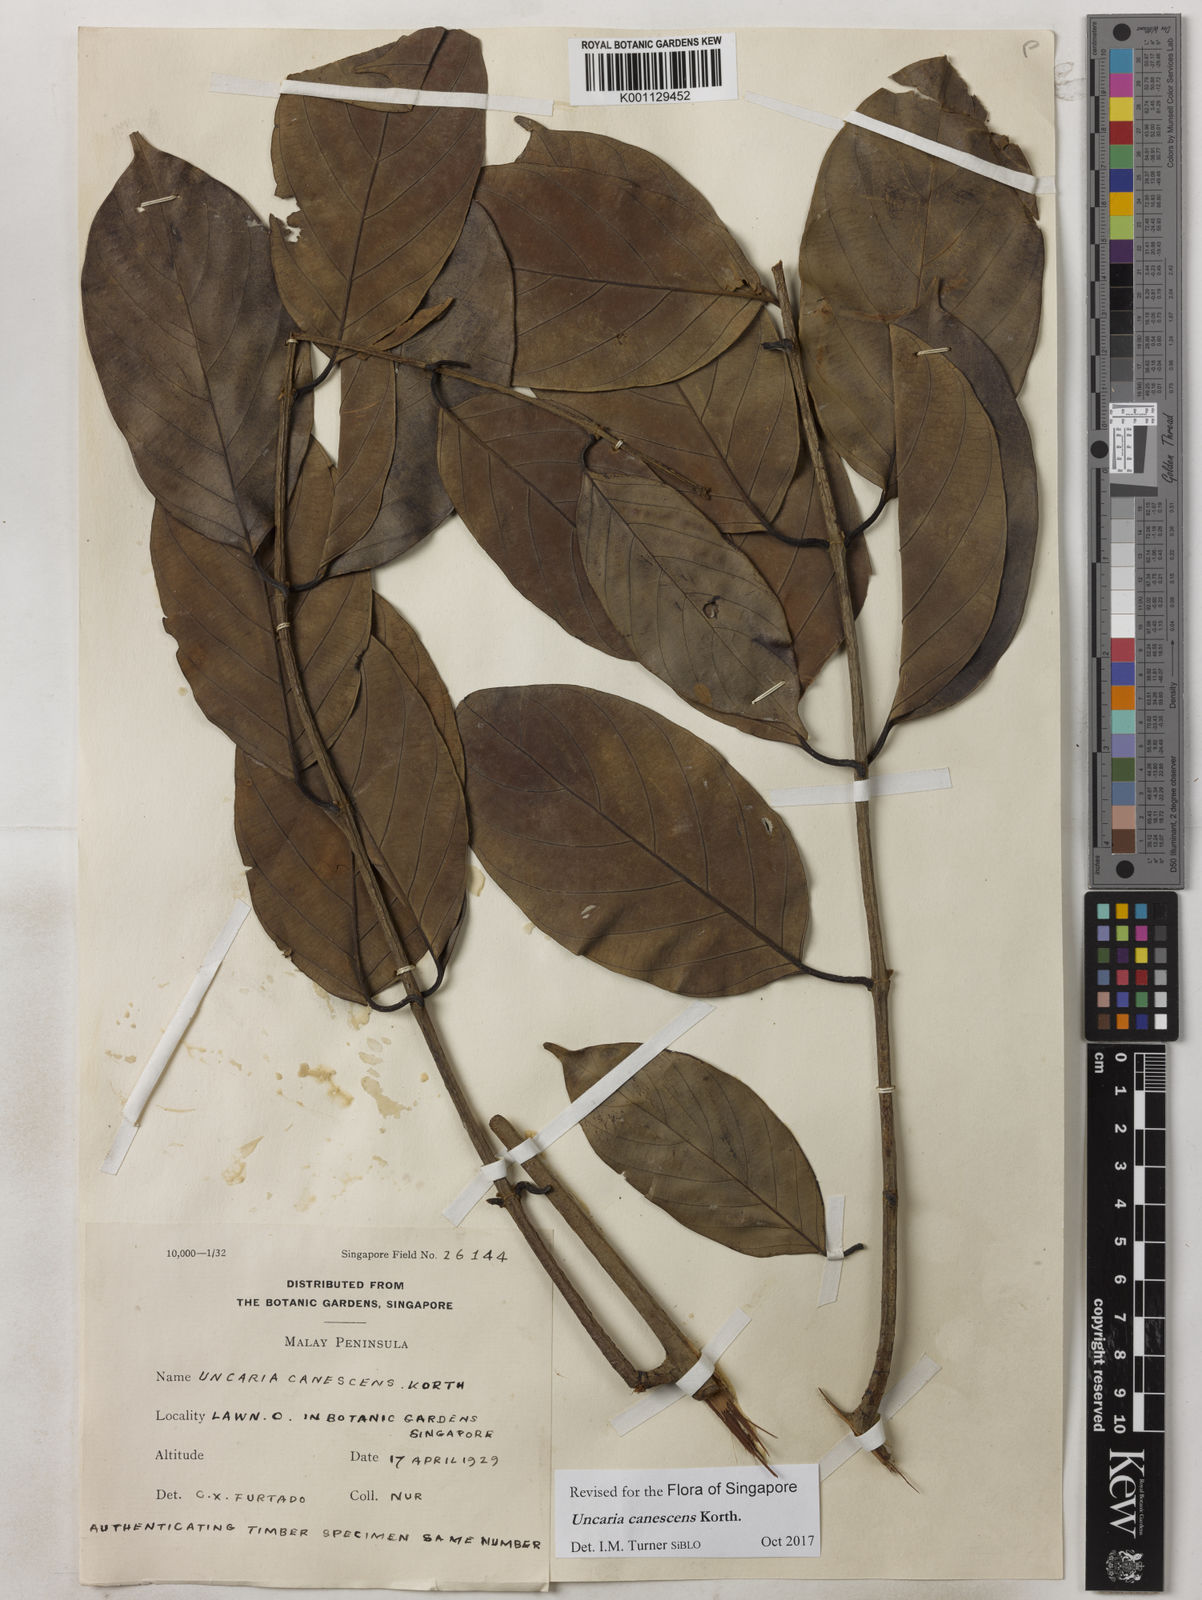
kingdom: Plantae
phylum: Tracheophyta
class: Magnoliopsida
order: Gentianales
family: Rubiaceae
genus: Uncaria
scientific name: Uncaria canescens
